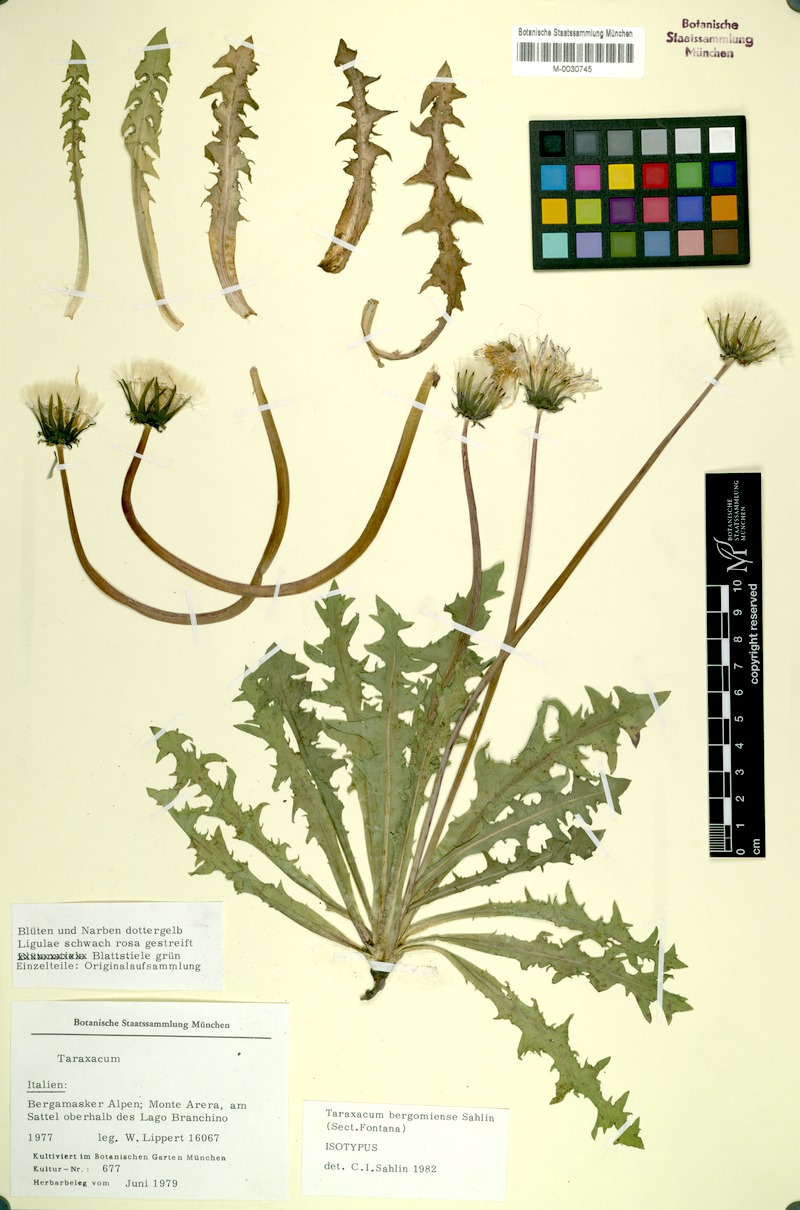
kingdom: Plantae
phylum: Tracheophyta
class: Magnoliopsida
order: Asterales
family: Asteraceae
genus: Taraxacum
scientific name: Taraxacum
